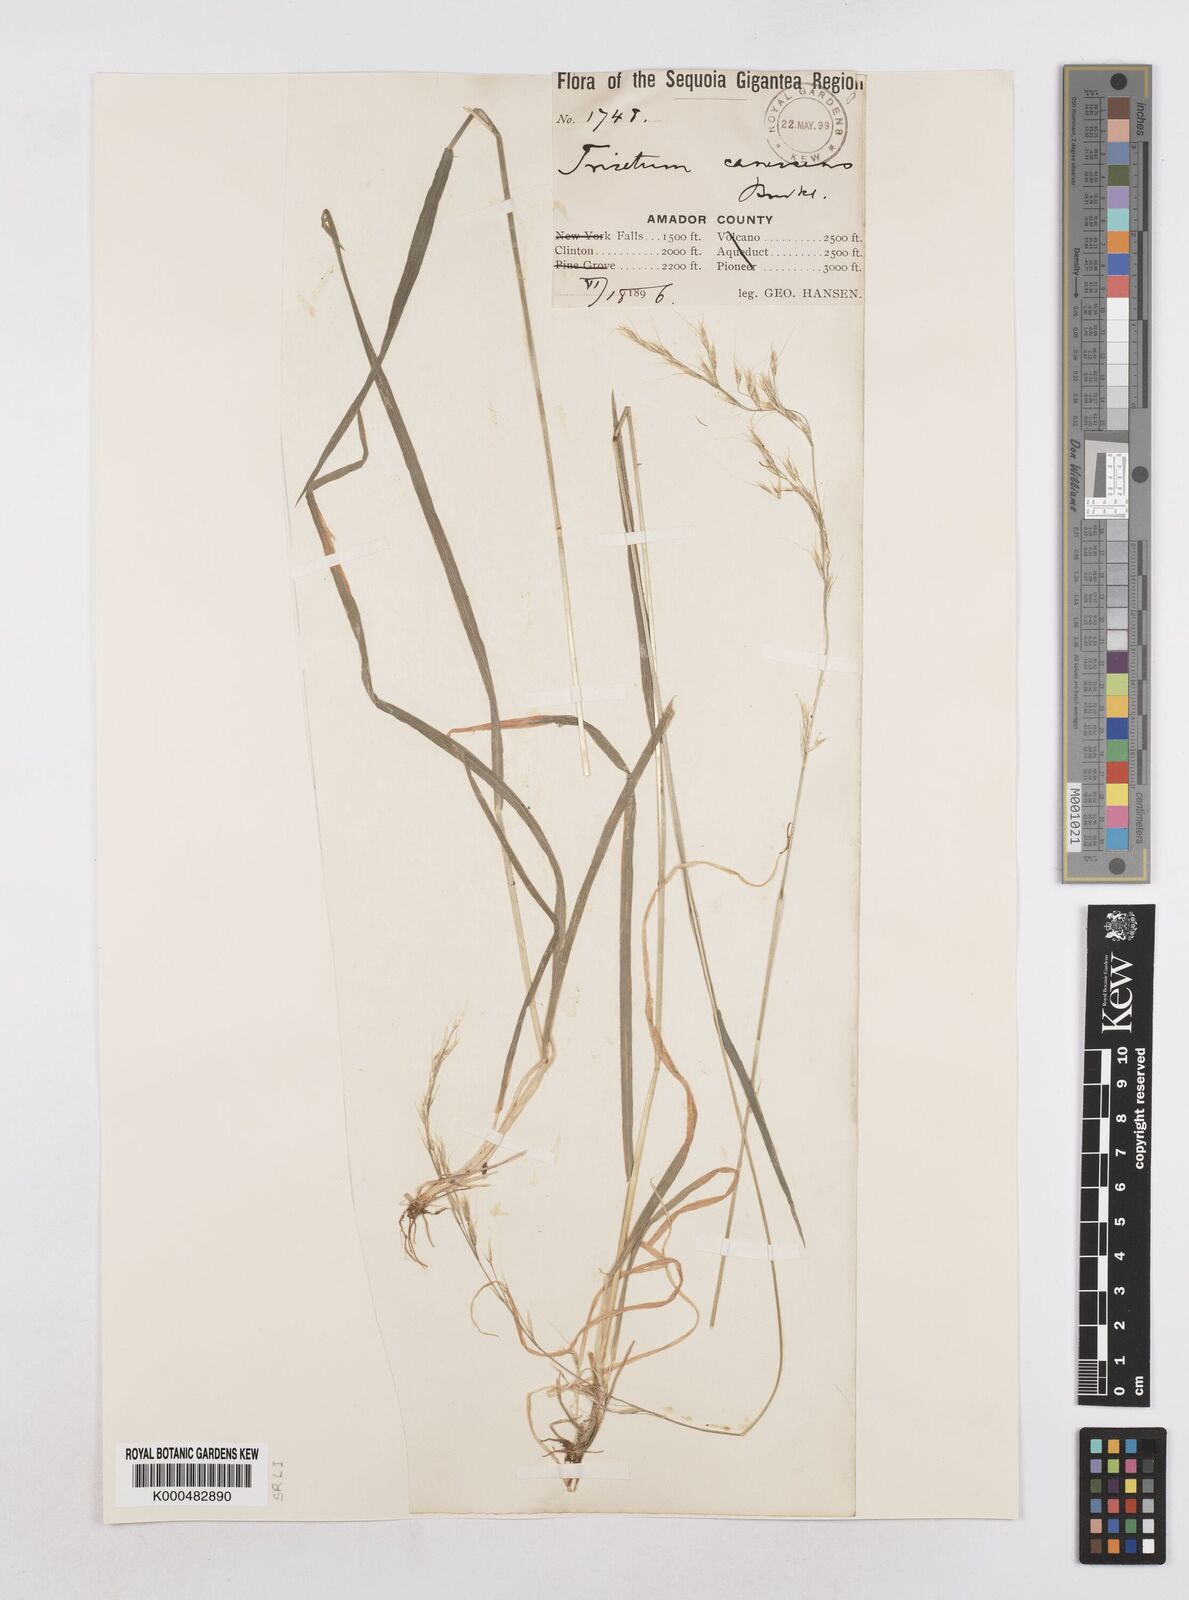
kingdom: Plantae
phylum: Tracheophyta
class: Liliopsida
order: Poales
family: Poaceae
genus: Graphephorum
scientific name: Graphephorum canescens
